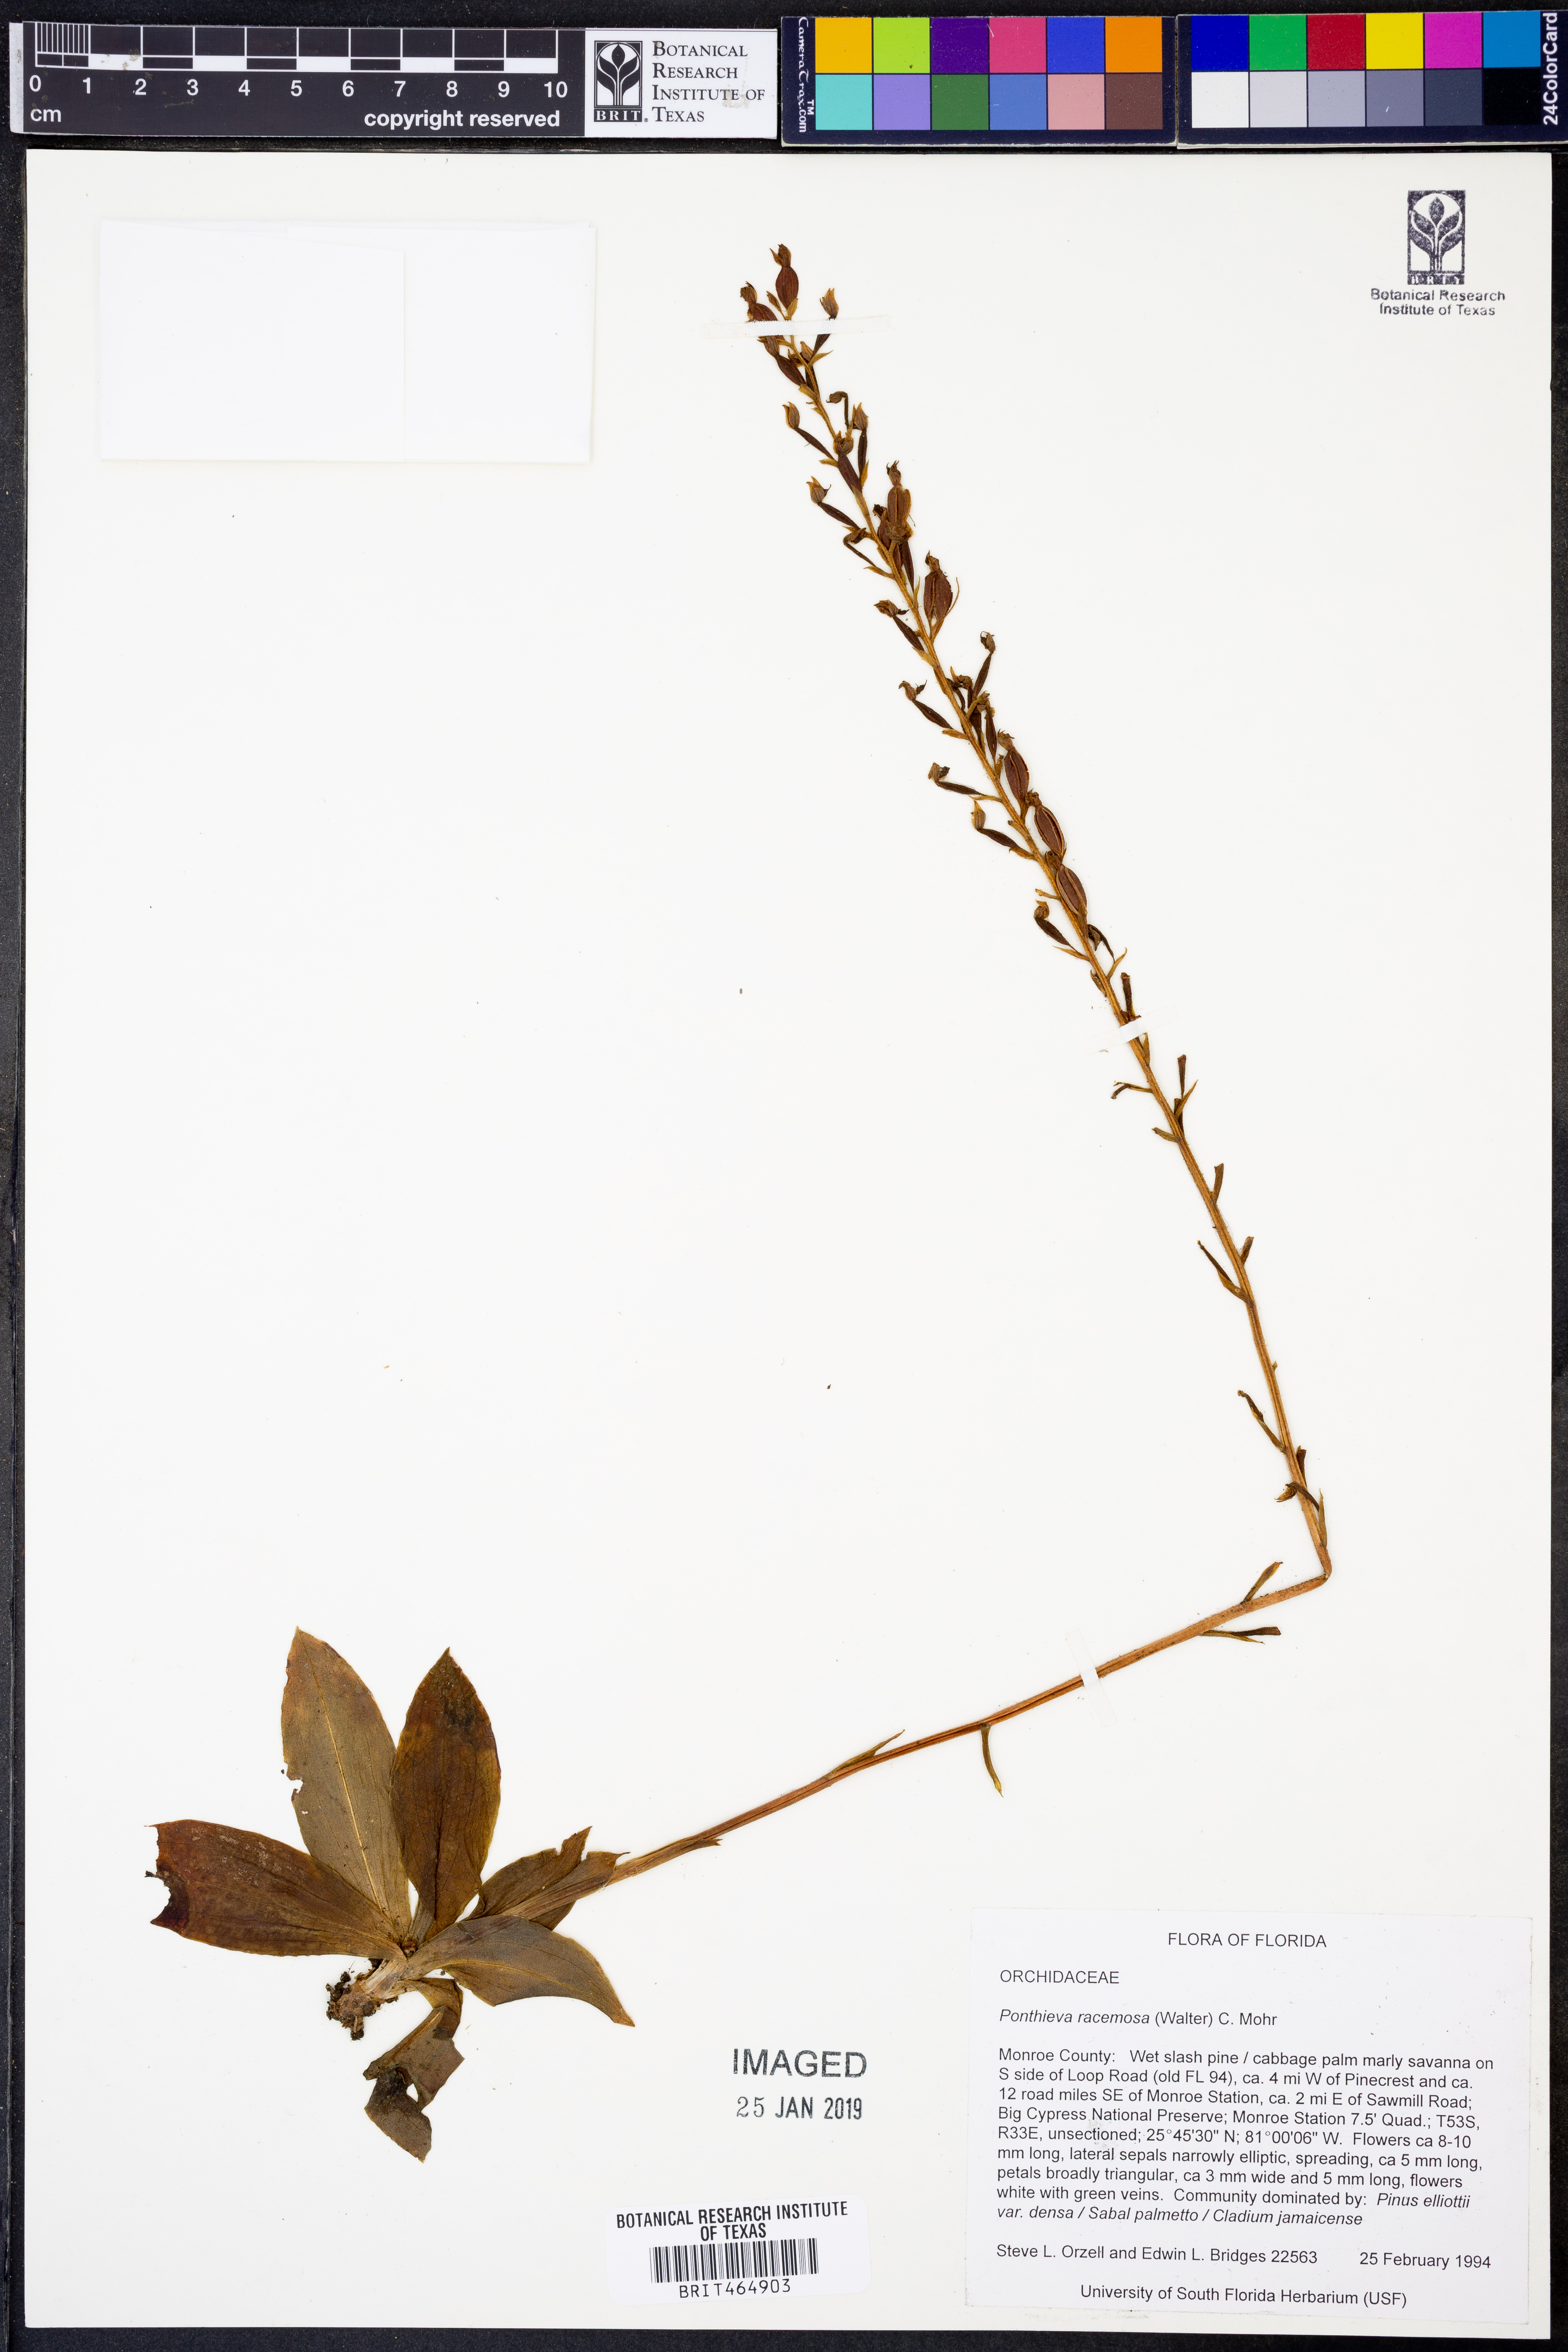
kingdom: Plantae
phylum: Tracheophyta
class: Liliopsida
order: Asparagales
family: Orchidaceae
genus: Ponthieva
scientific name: Ponthieva racemosa
